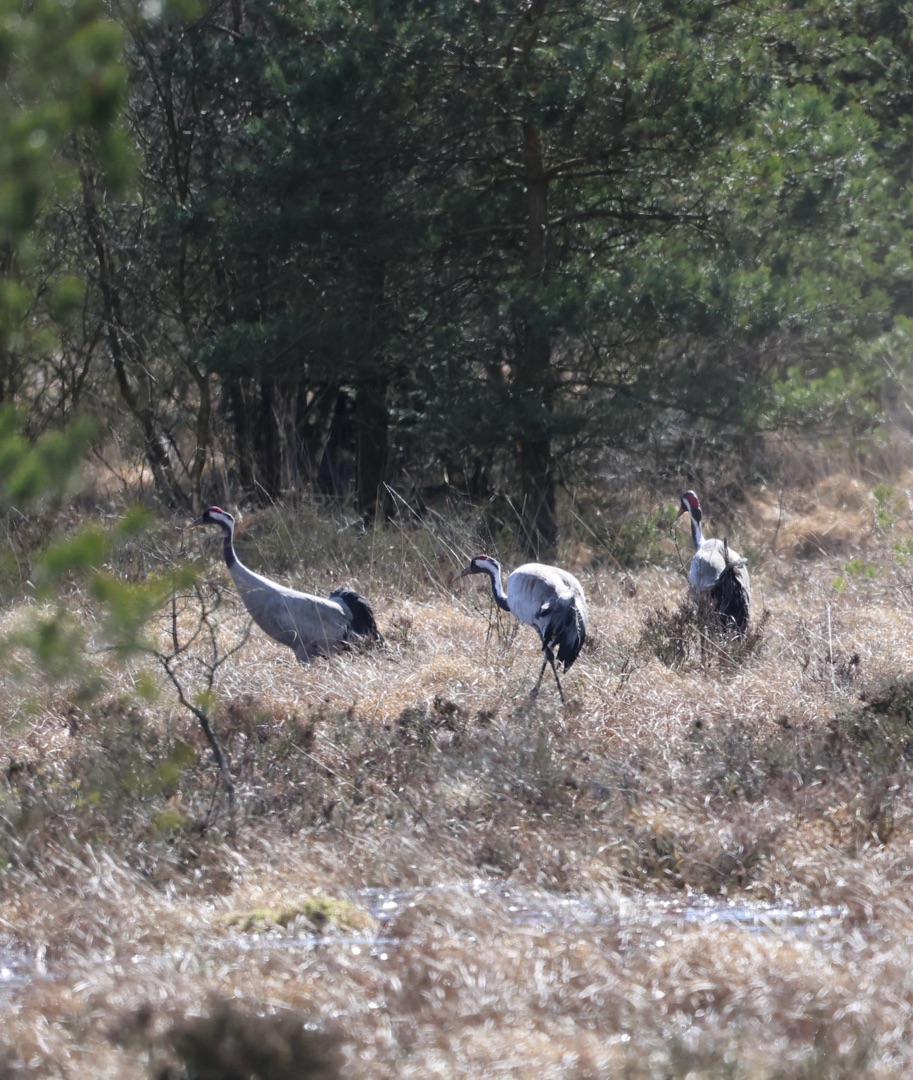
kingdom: Animalia
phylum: Chordata
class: Aves
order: Gruiformes
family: Gruidae
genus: Grus
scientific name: Grus grus
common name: Trane
